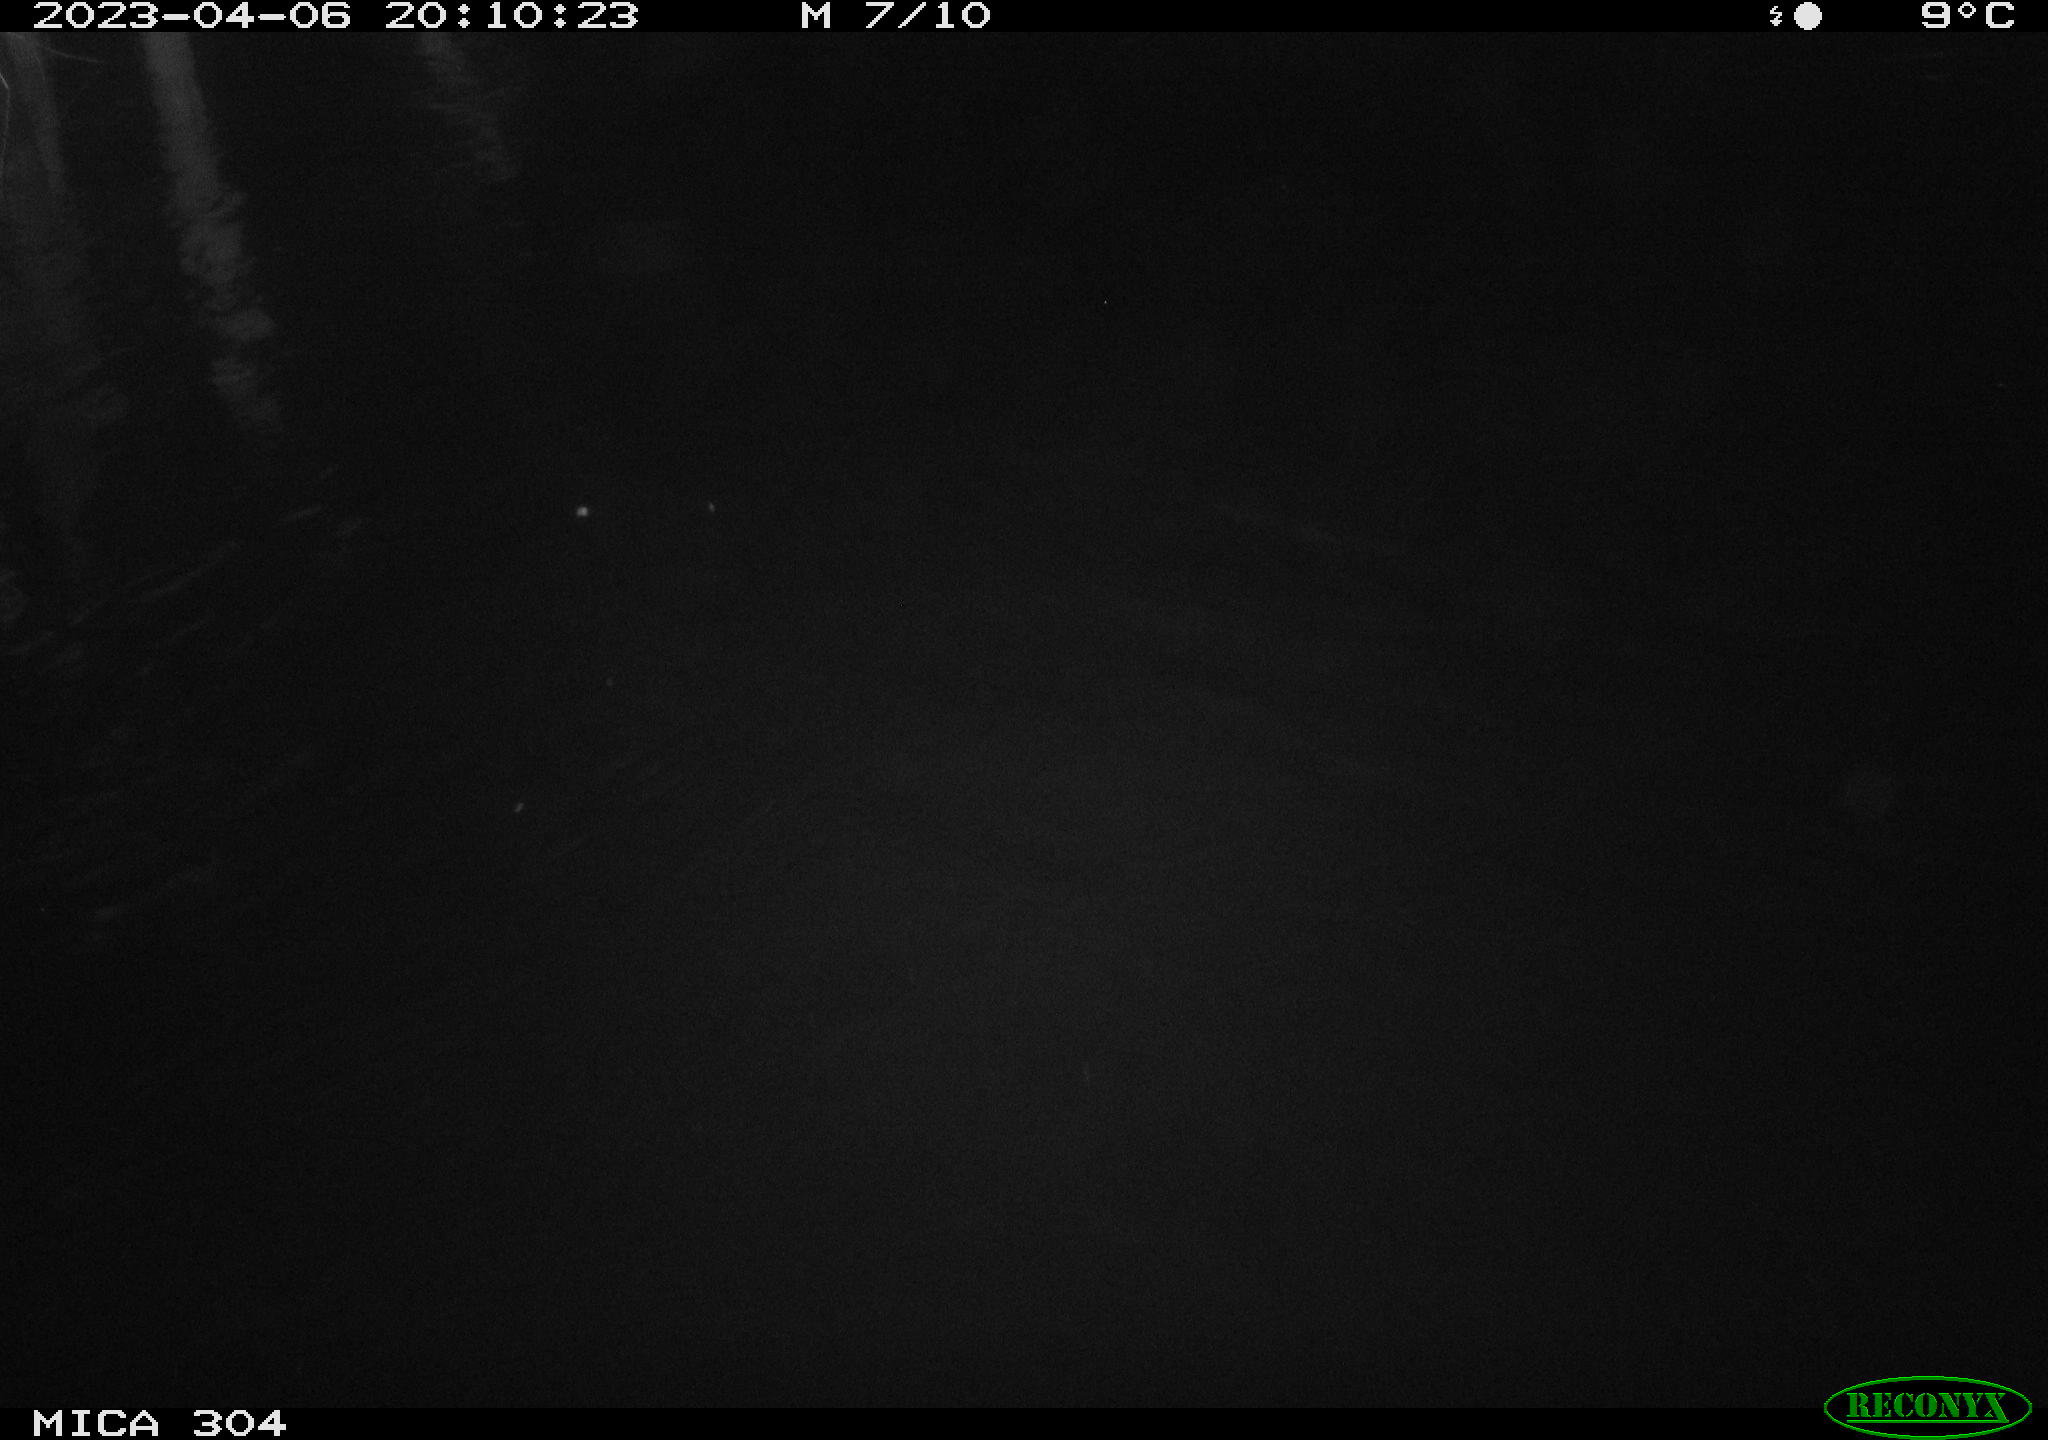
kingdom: Animalia
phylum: Chordata
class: Aves
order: Anseriformes
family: Anatidae
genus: Anas
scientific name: Anas
